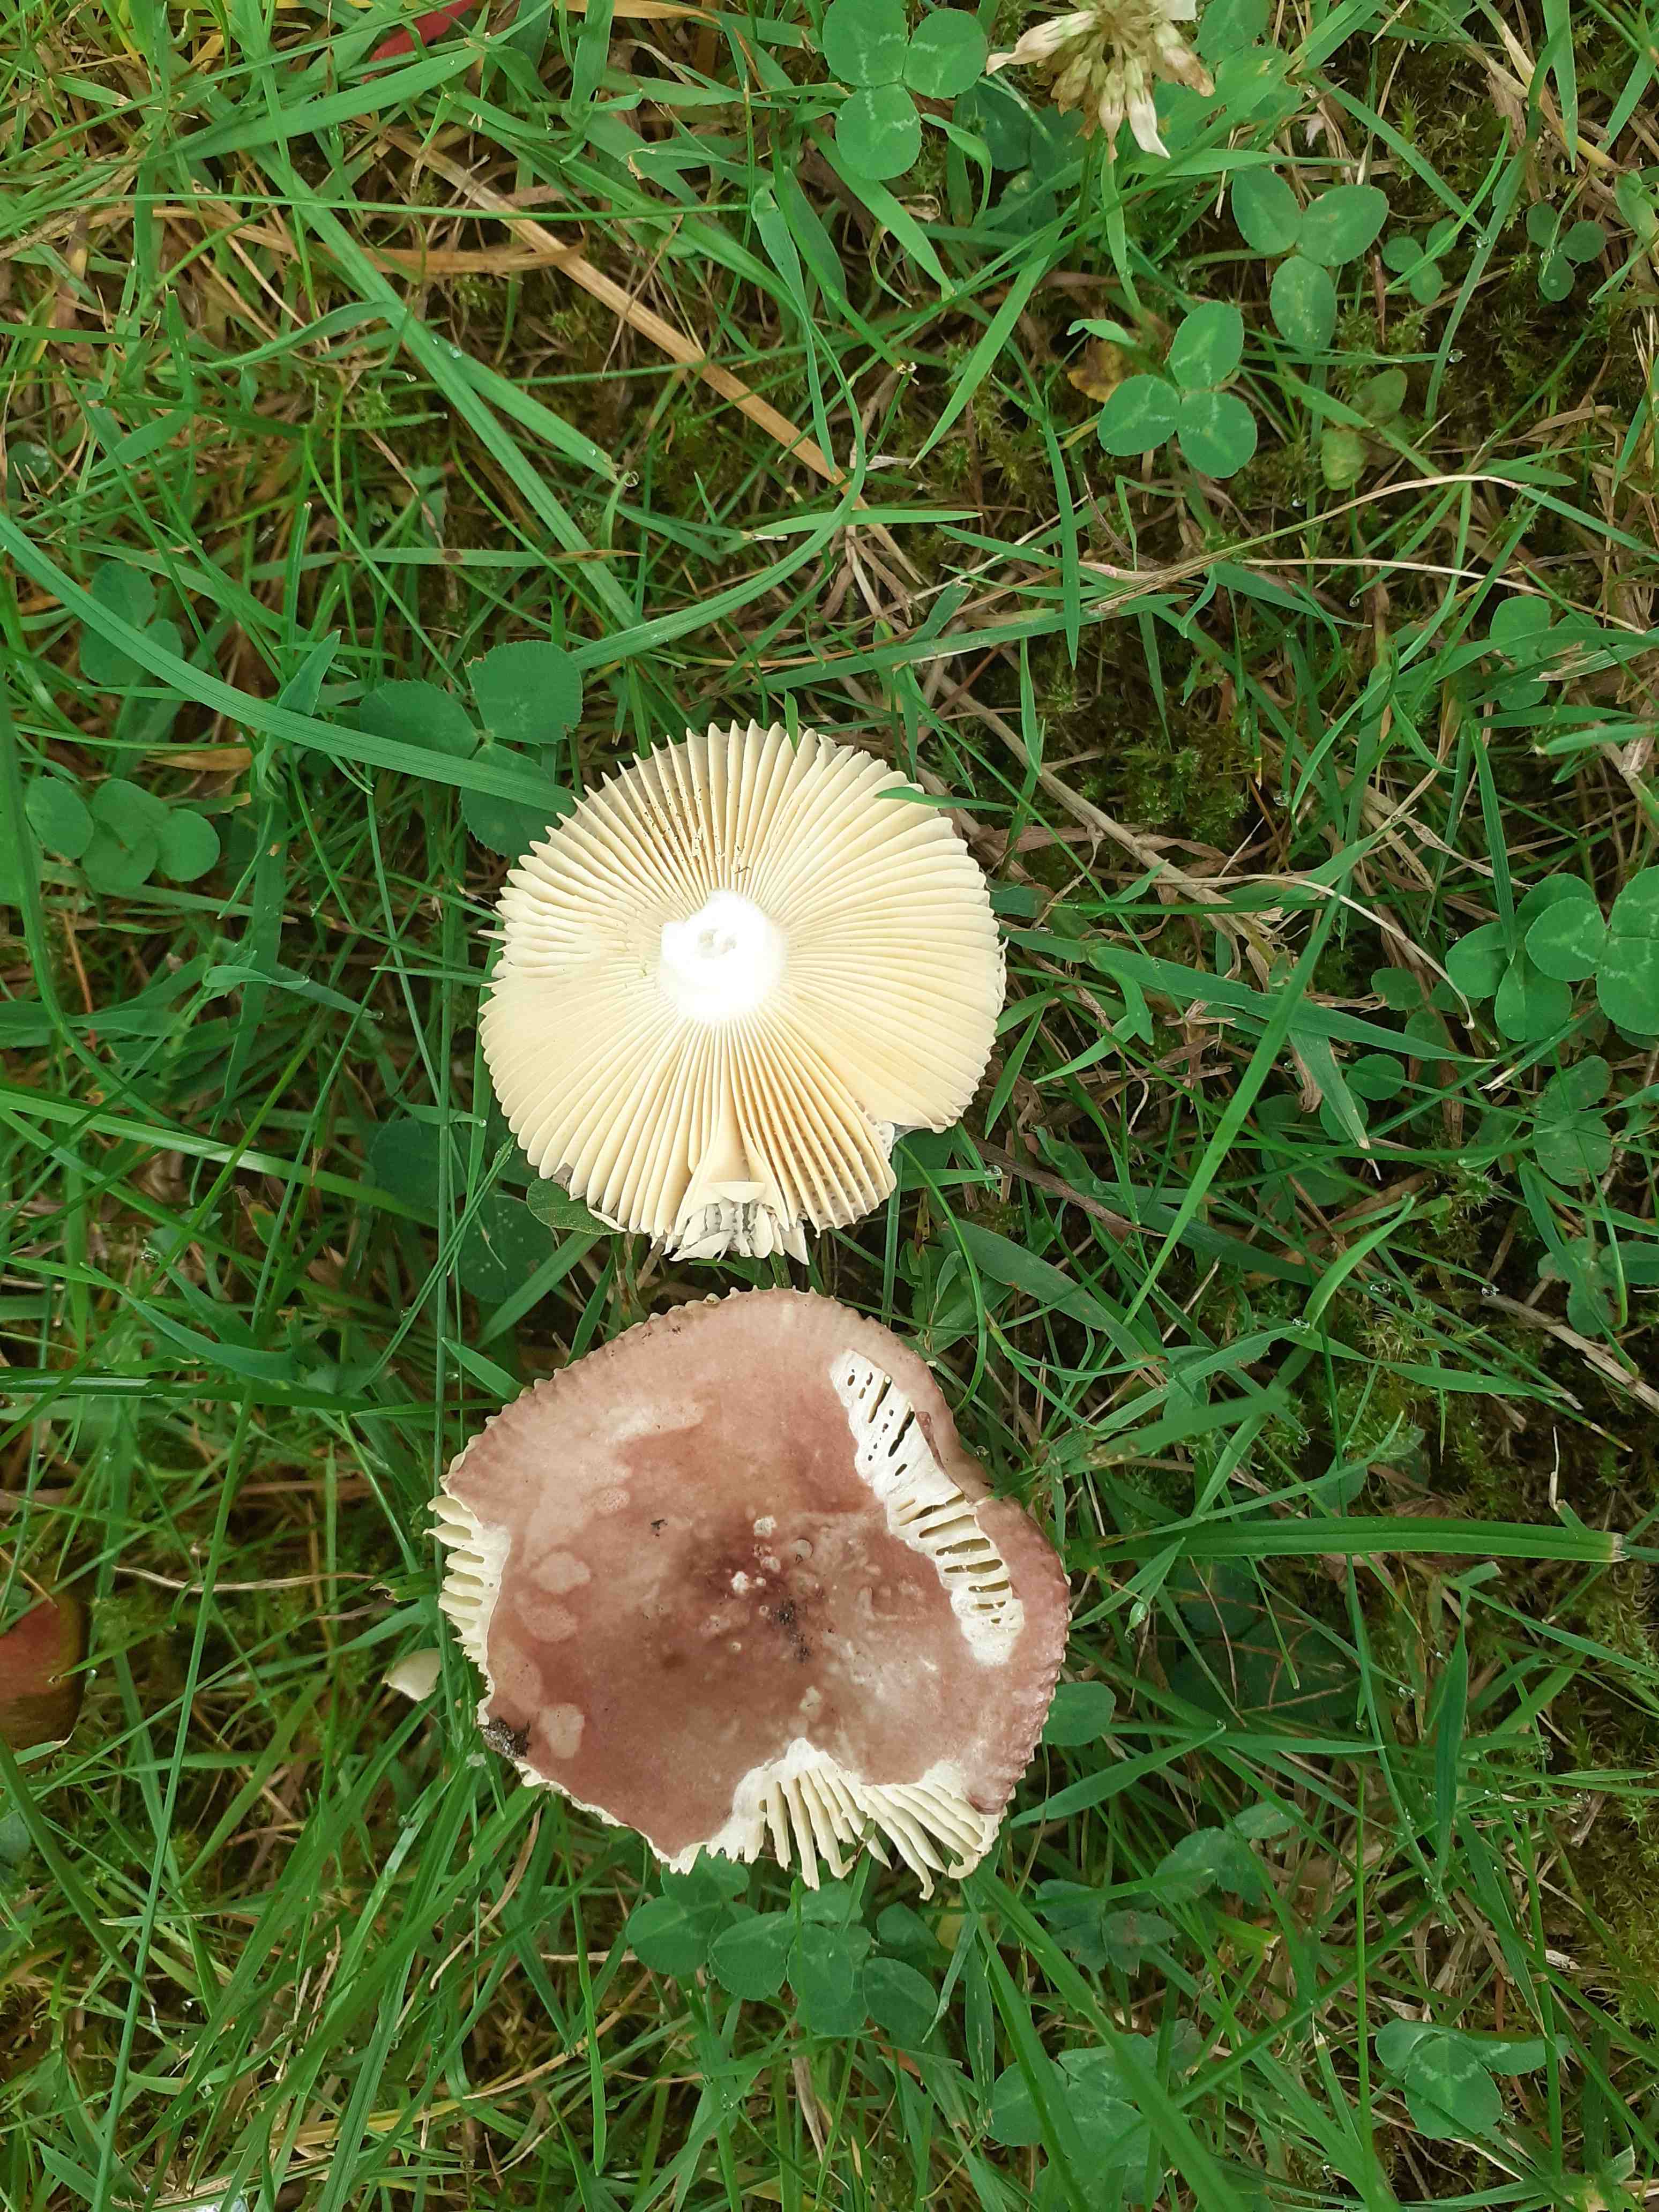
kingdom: Fungi
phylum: Basidiomycota
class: Agaricomycetes
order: Russulales
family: Russulaceae
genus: Russula
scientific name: Russula nauseosa
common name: spinkel skørhat
